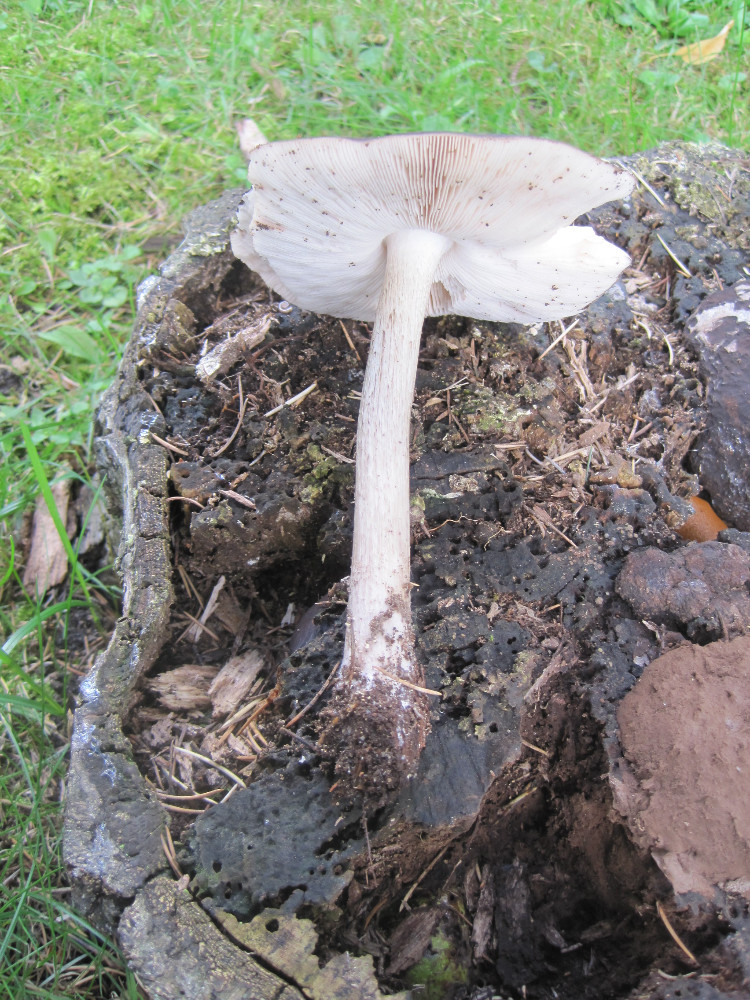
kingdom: Fungi
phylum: Basidiomycota
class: Agaricomycetes
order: Agaricales
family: Pluteaceae
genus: Pluteus
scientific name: Pluteus cervinus
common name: sodfarvet skærmhat
